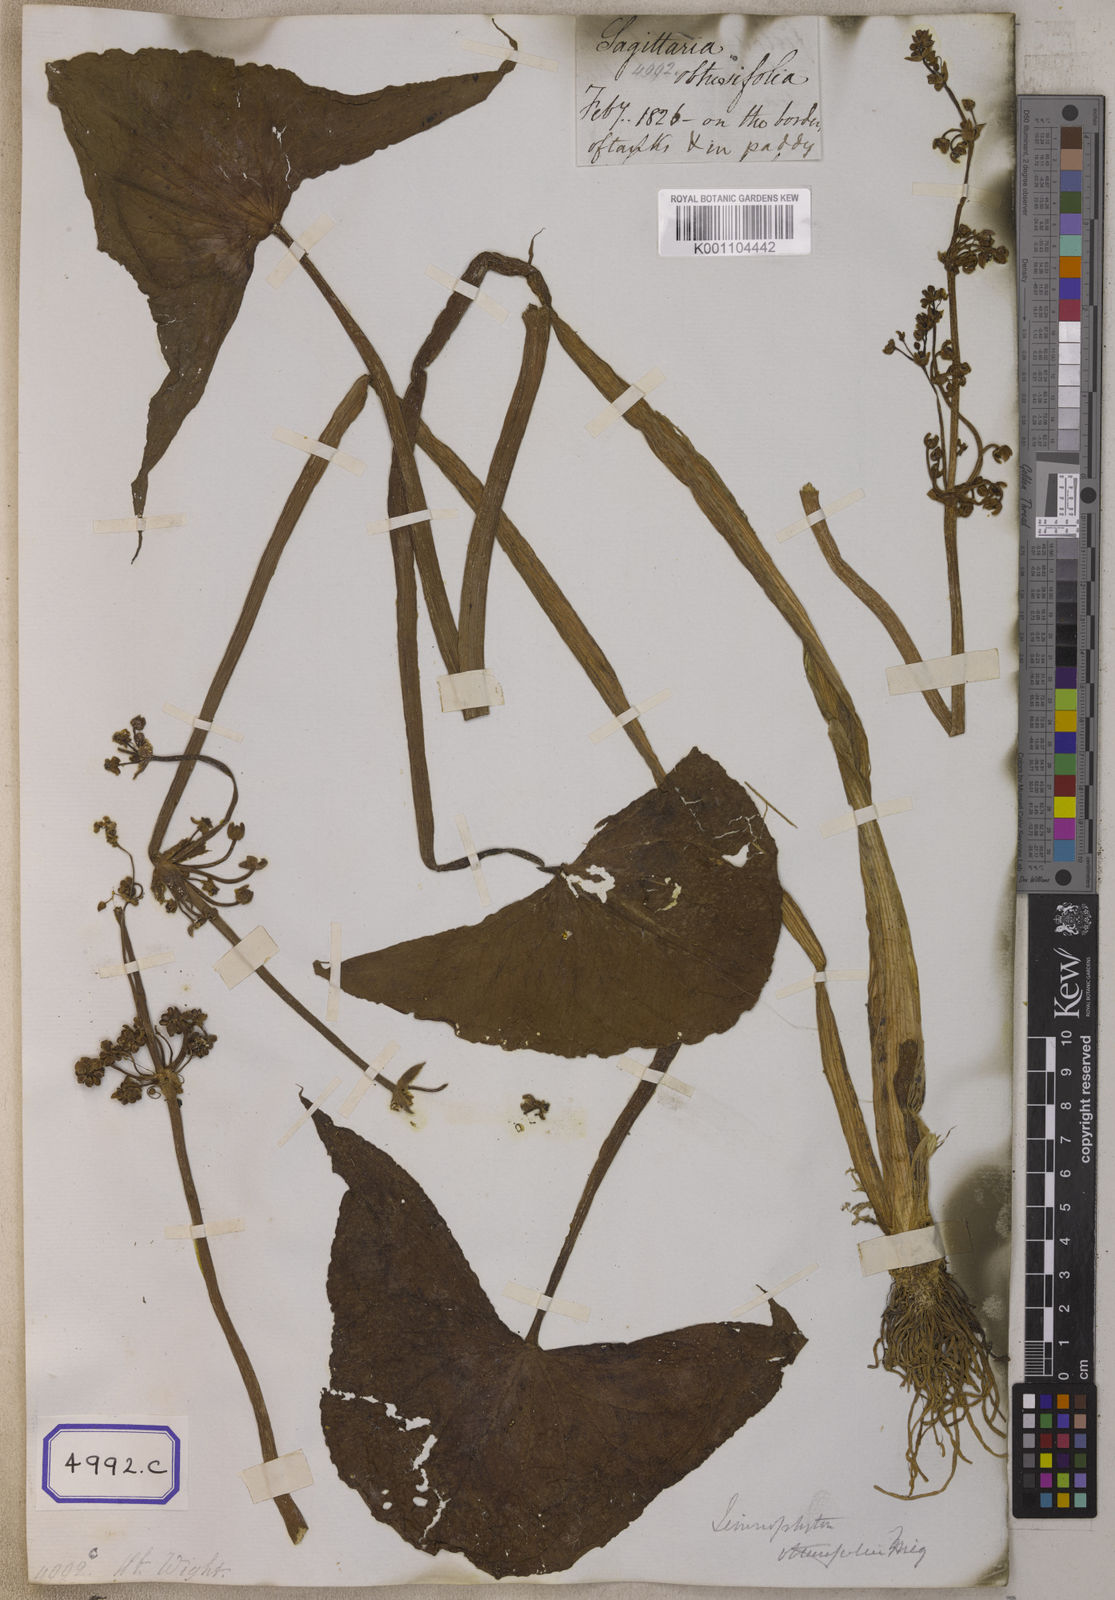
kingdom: Plantae
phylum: Tracheophyta
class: Liliopsida
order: Alismatales
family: Alismataceae
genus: Limnophyton
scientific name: Limnophyton obtusifolium
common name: Arrow head
